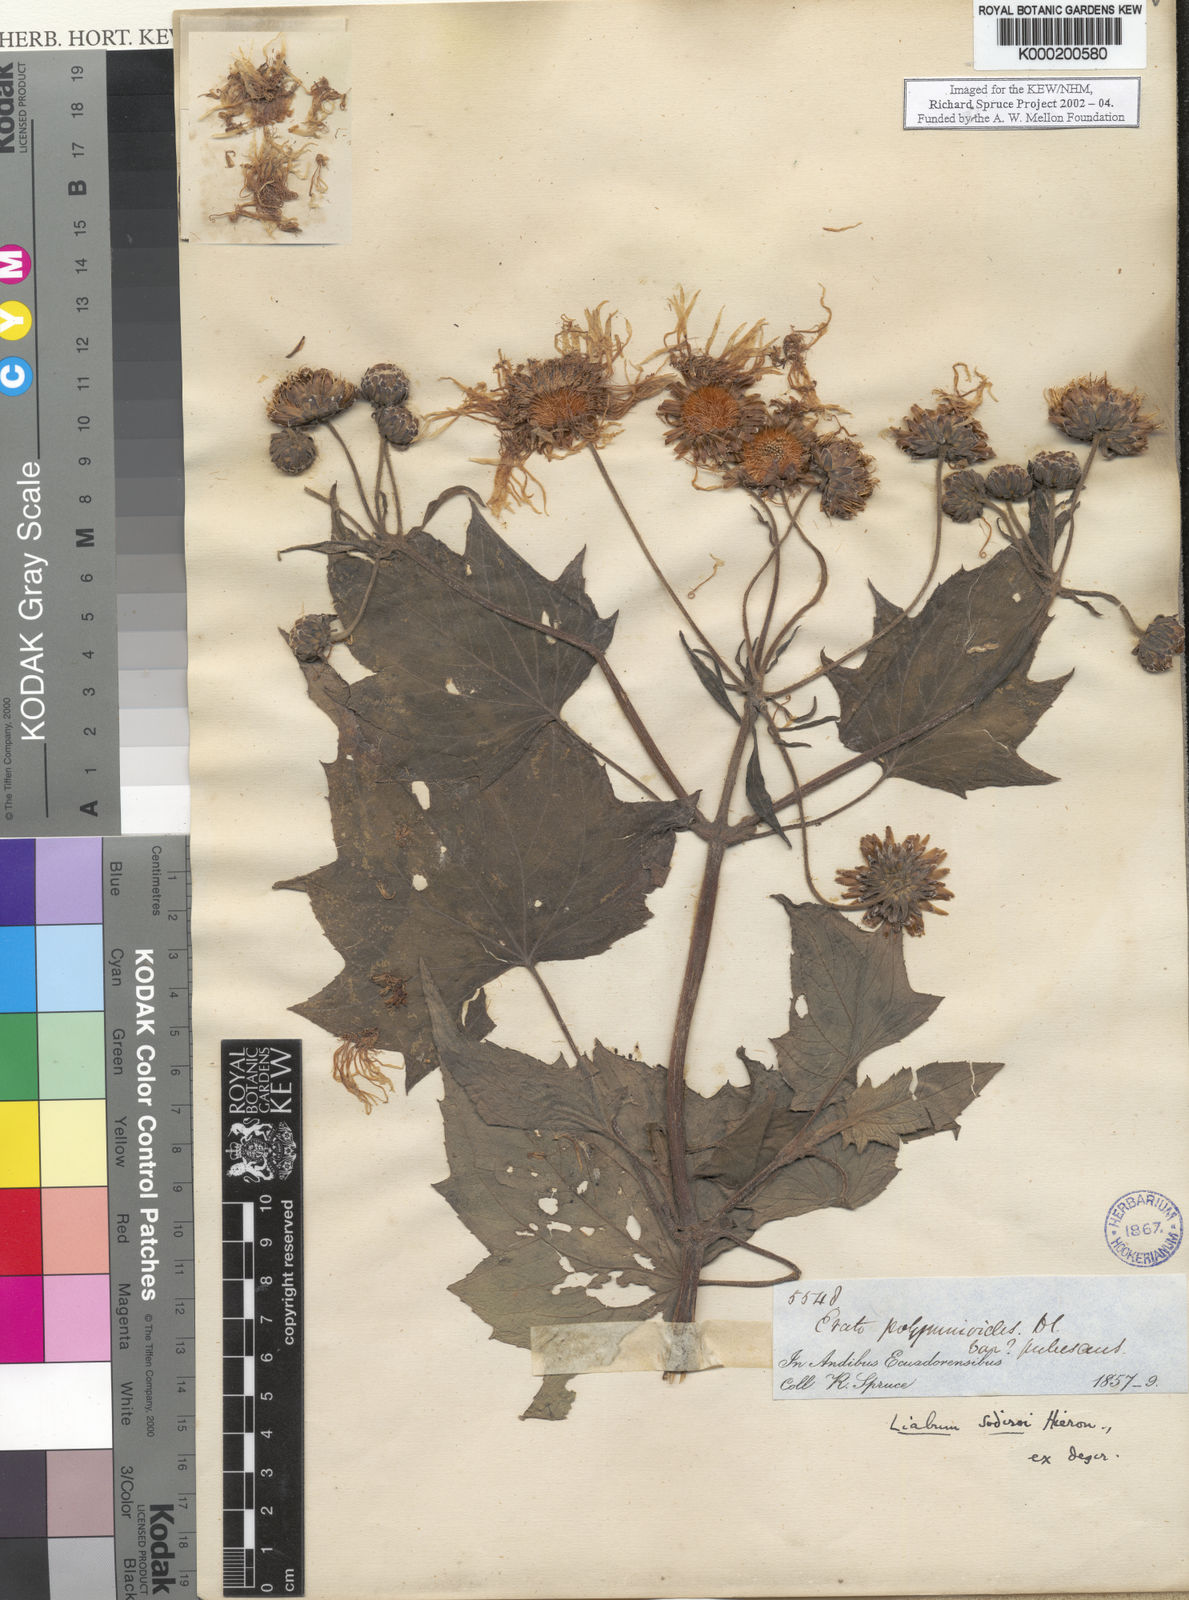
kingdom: Plantae
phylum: Tracheophyta
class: Magnoliopsida
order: Asterales
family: Asteraceae
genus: Erato
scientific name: Erato sodiroi
